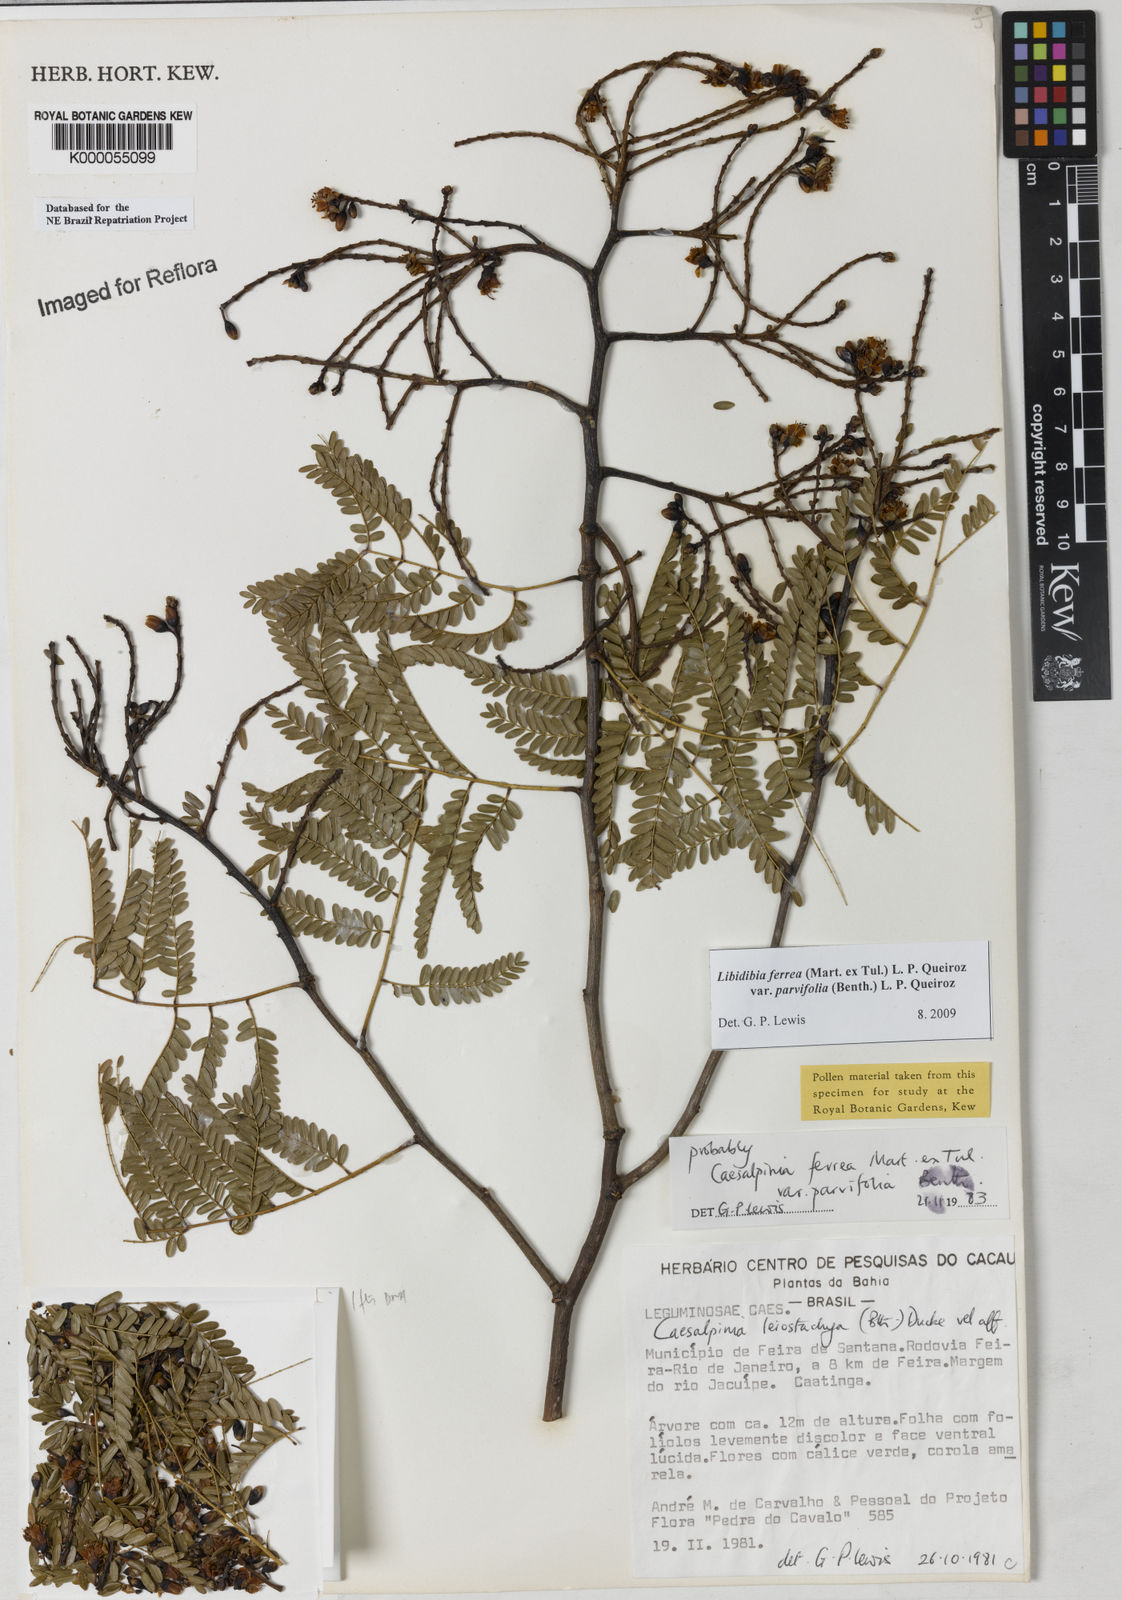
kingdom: Plantae
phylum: Tracheophyta
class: Magnoliopsida
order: Fabales
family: Fabaceae
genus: Libidibia
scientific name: Libidibia ferrea
